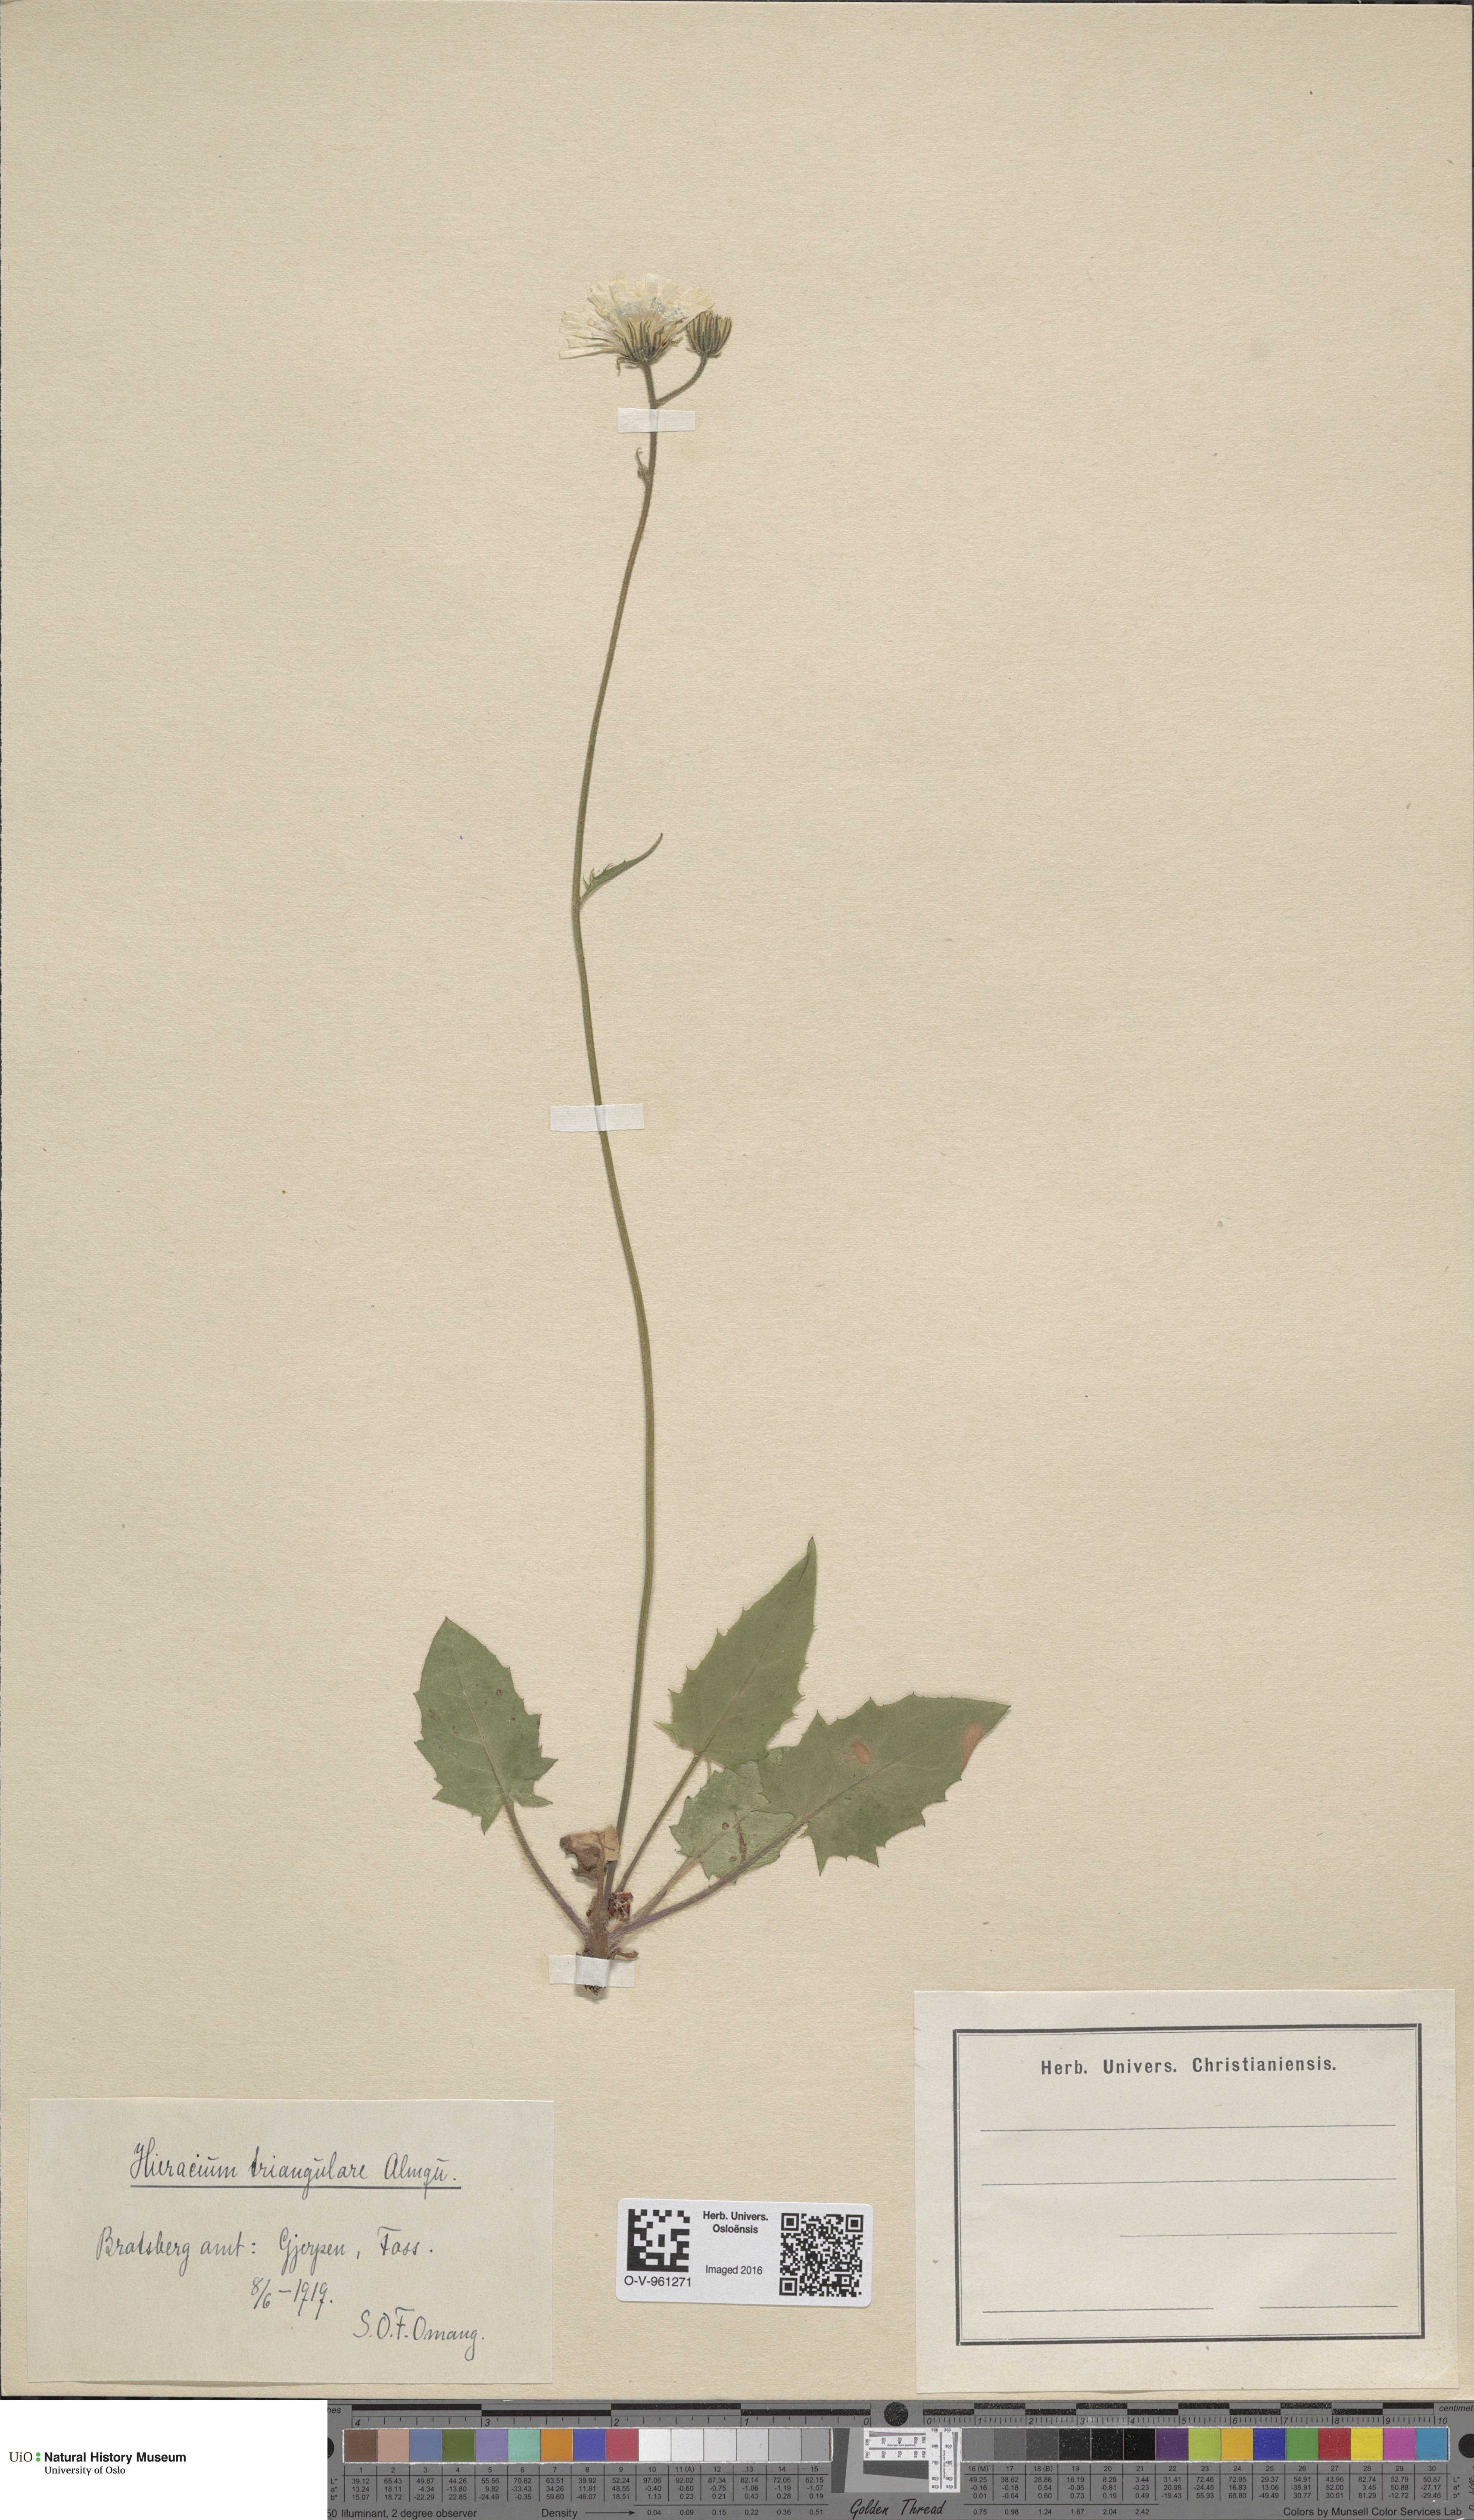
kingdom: Plantae
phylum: Tracheophyta
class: Magnoliopsida
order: Asterales
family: Asteraceae
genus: Hieracium
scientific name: Hieracium triangulare
